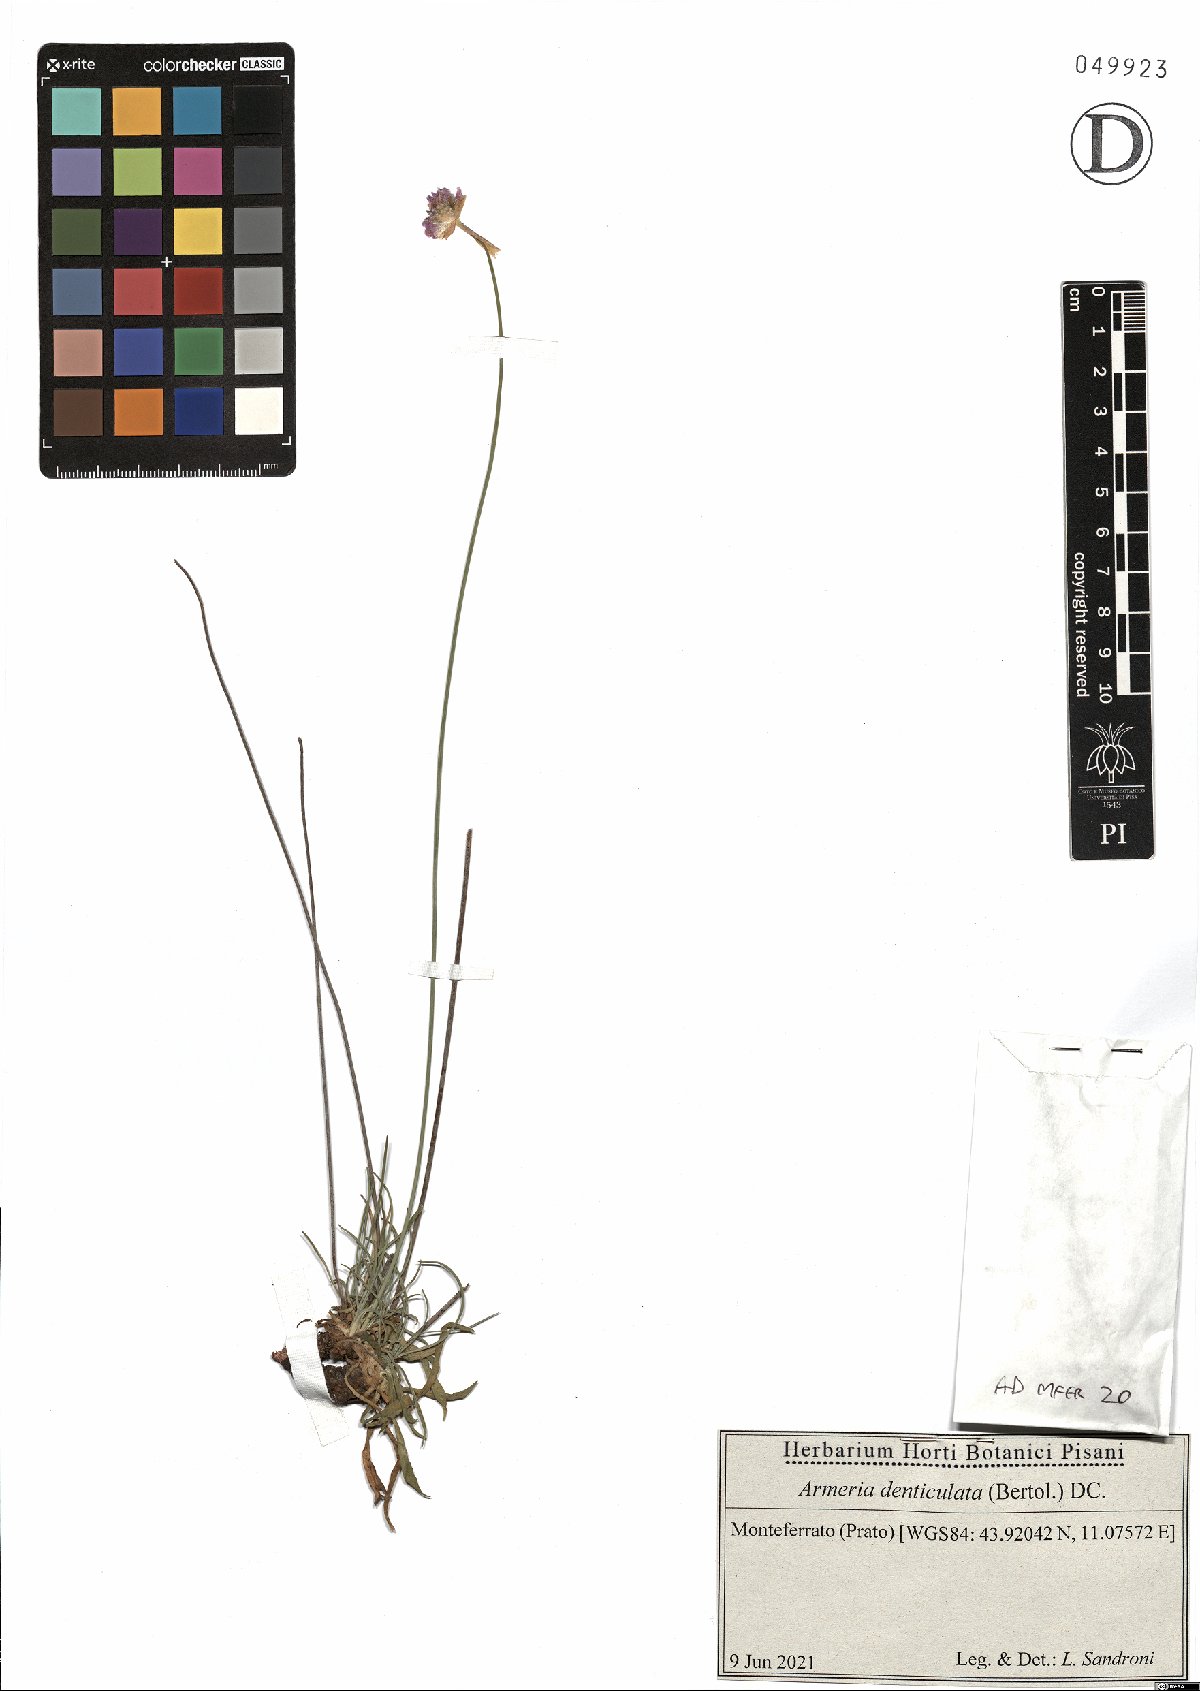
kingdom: Plantae
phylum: Tracheophyta
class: Magnoliopsida
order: Caryophyllales
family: Plumbaginaceae
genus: Armeria
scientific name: Armeria denticulata
